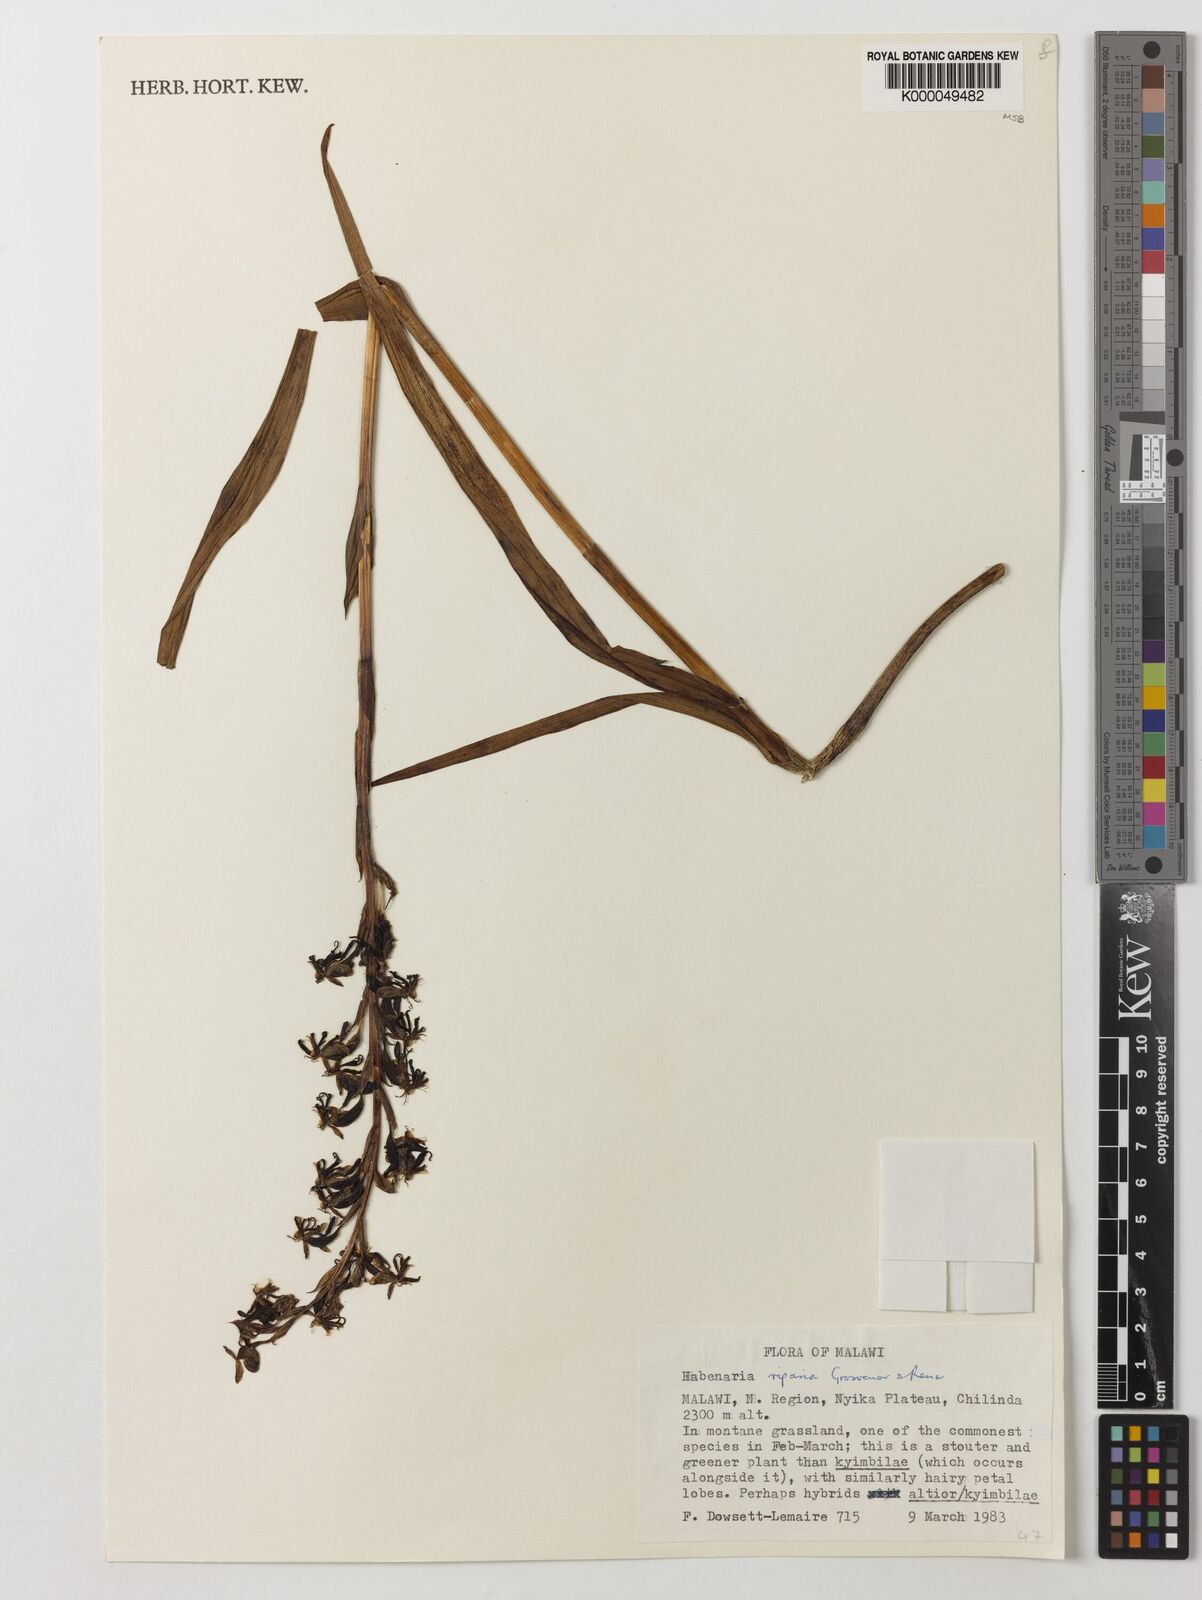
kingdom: Plantae
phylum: Tracheophyta
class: Liliopsida
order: Asparagales
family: Orchidaceae
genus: Habenaria
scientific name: Habenaria riparia
